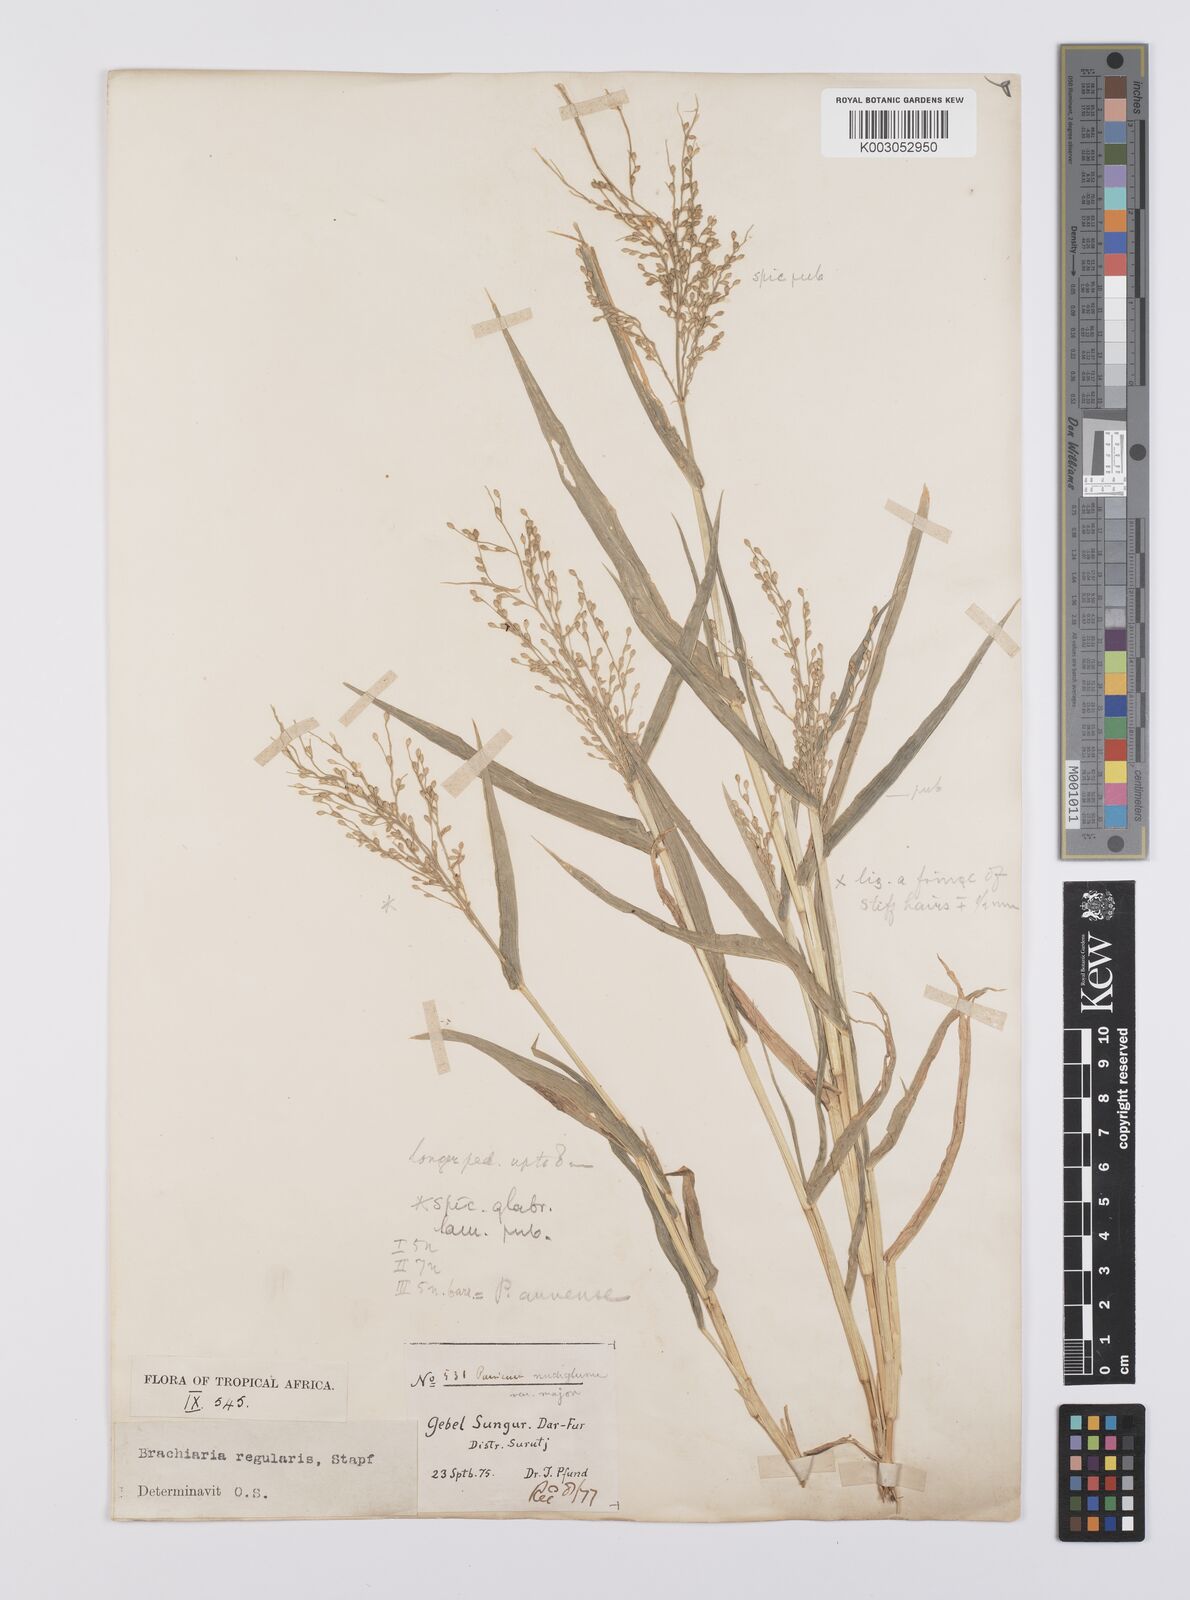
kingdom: Plantae
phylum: Tracheophyta
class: Liliopsida
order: Poales
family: Poaceae
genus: Urochloa
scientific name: Urochloa deflexa
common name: Guinea millet
